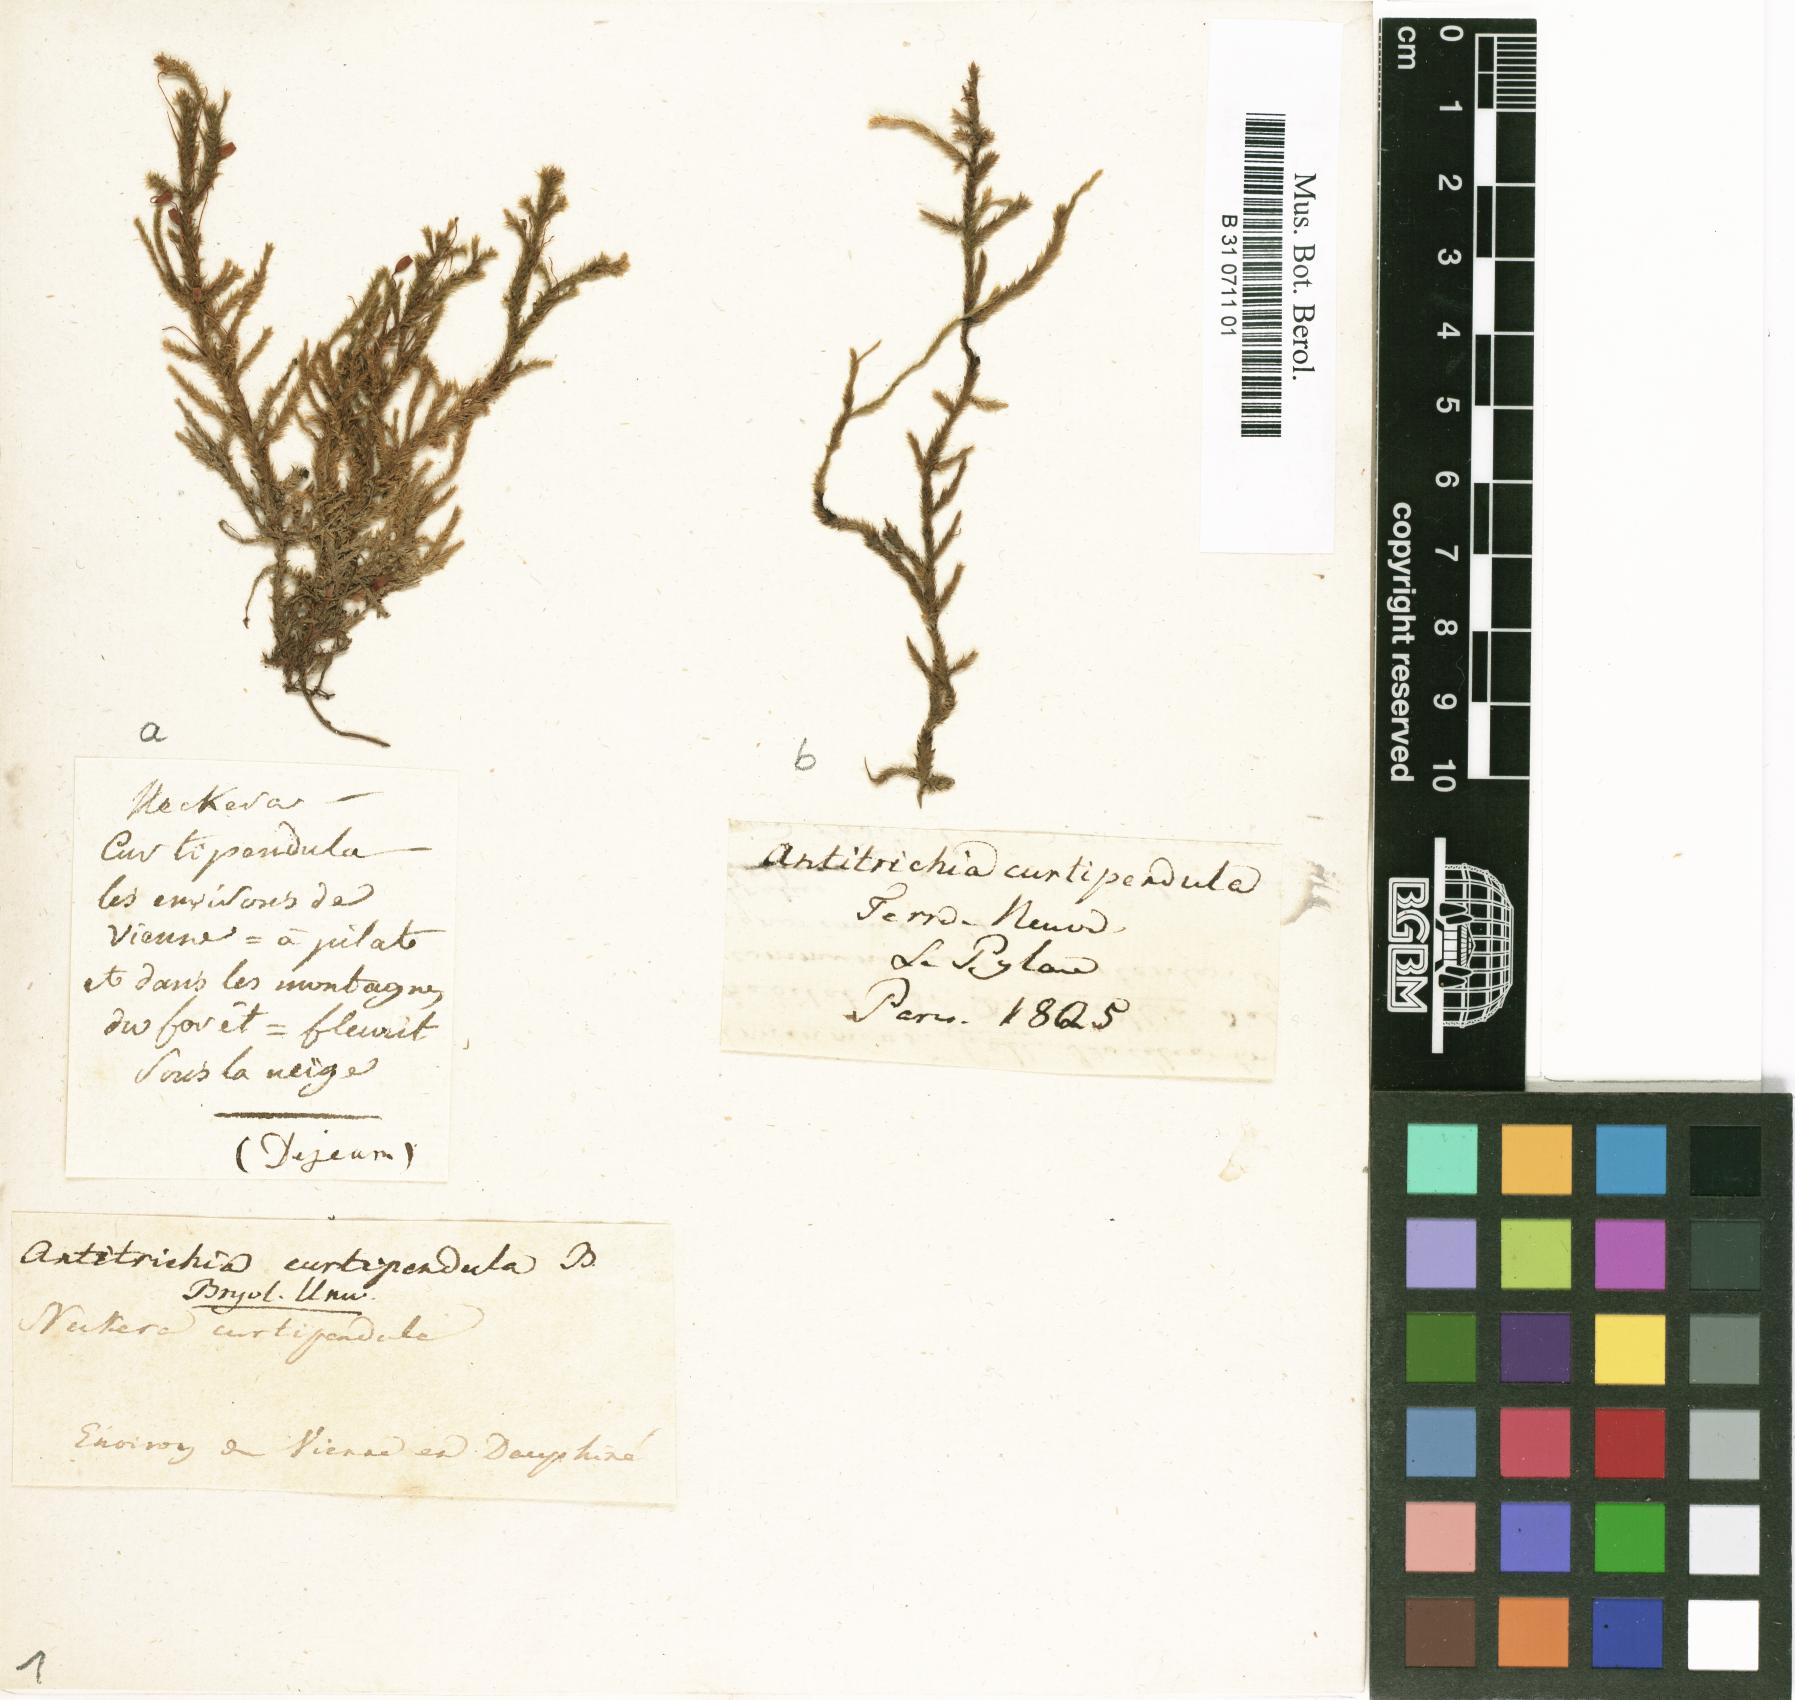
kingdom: Plantae
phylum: Bryophyta
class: Bryopsida
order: Hypnales
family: Antitrichiaceae
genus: Antitrichia
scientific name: Antitrichia curtipendula
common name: Pendulous wing-moss
